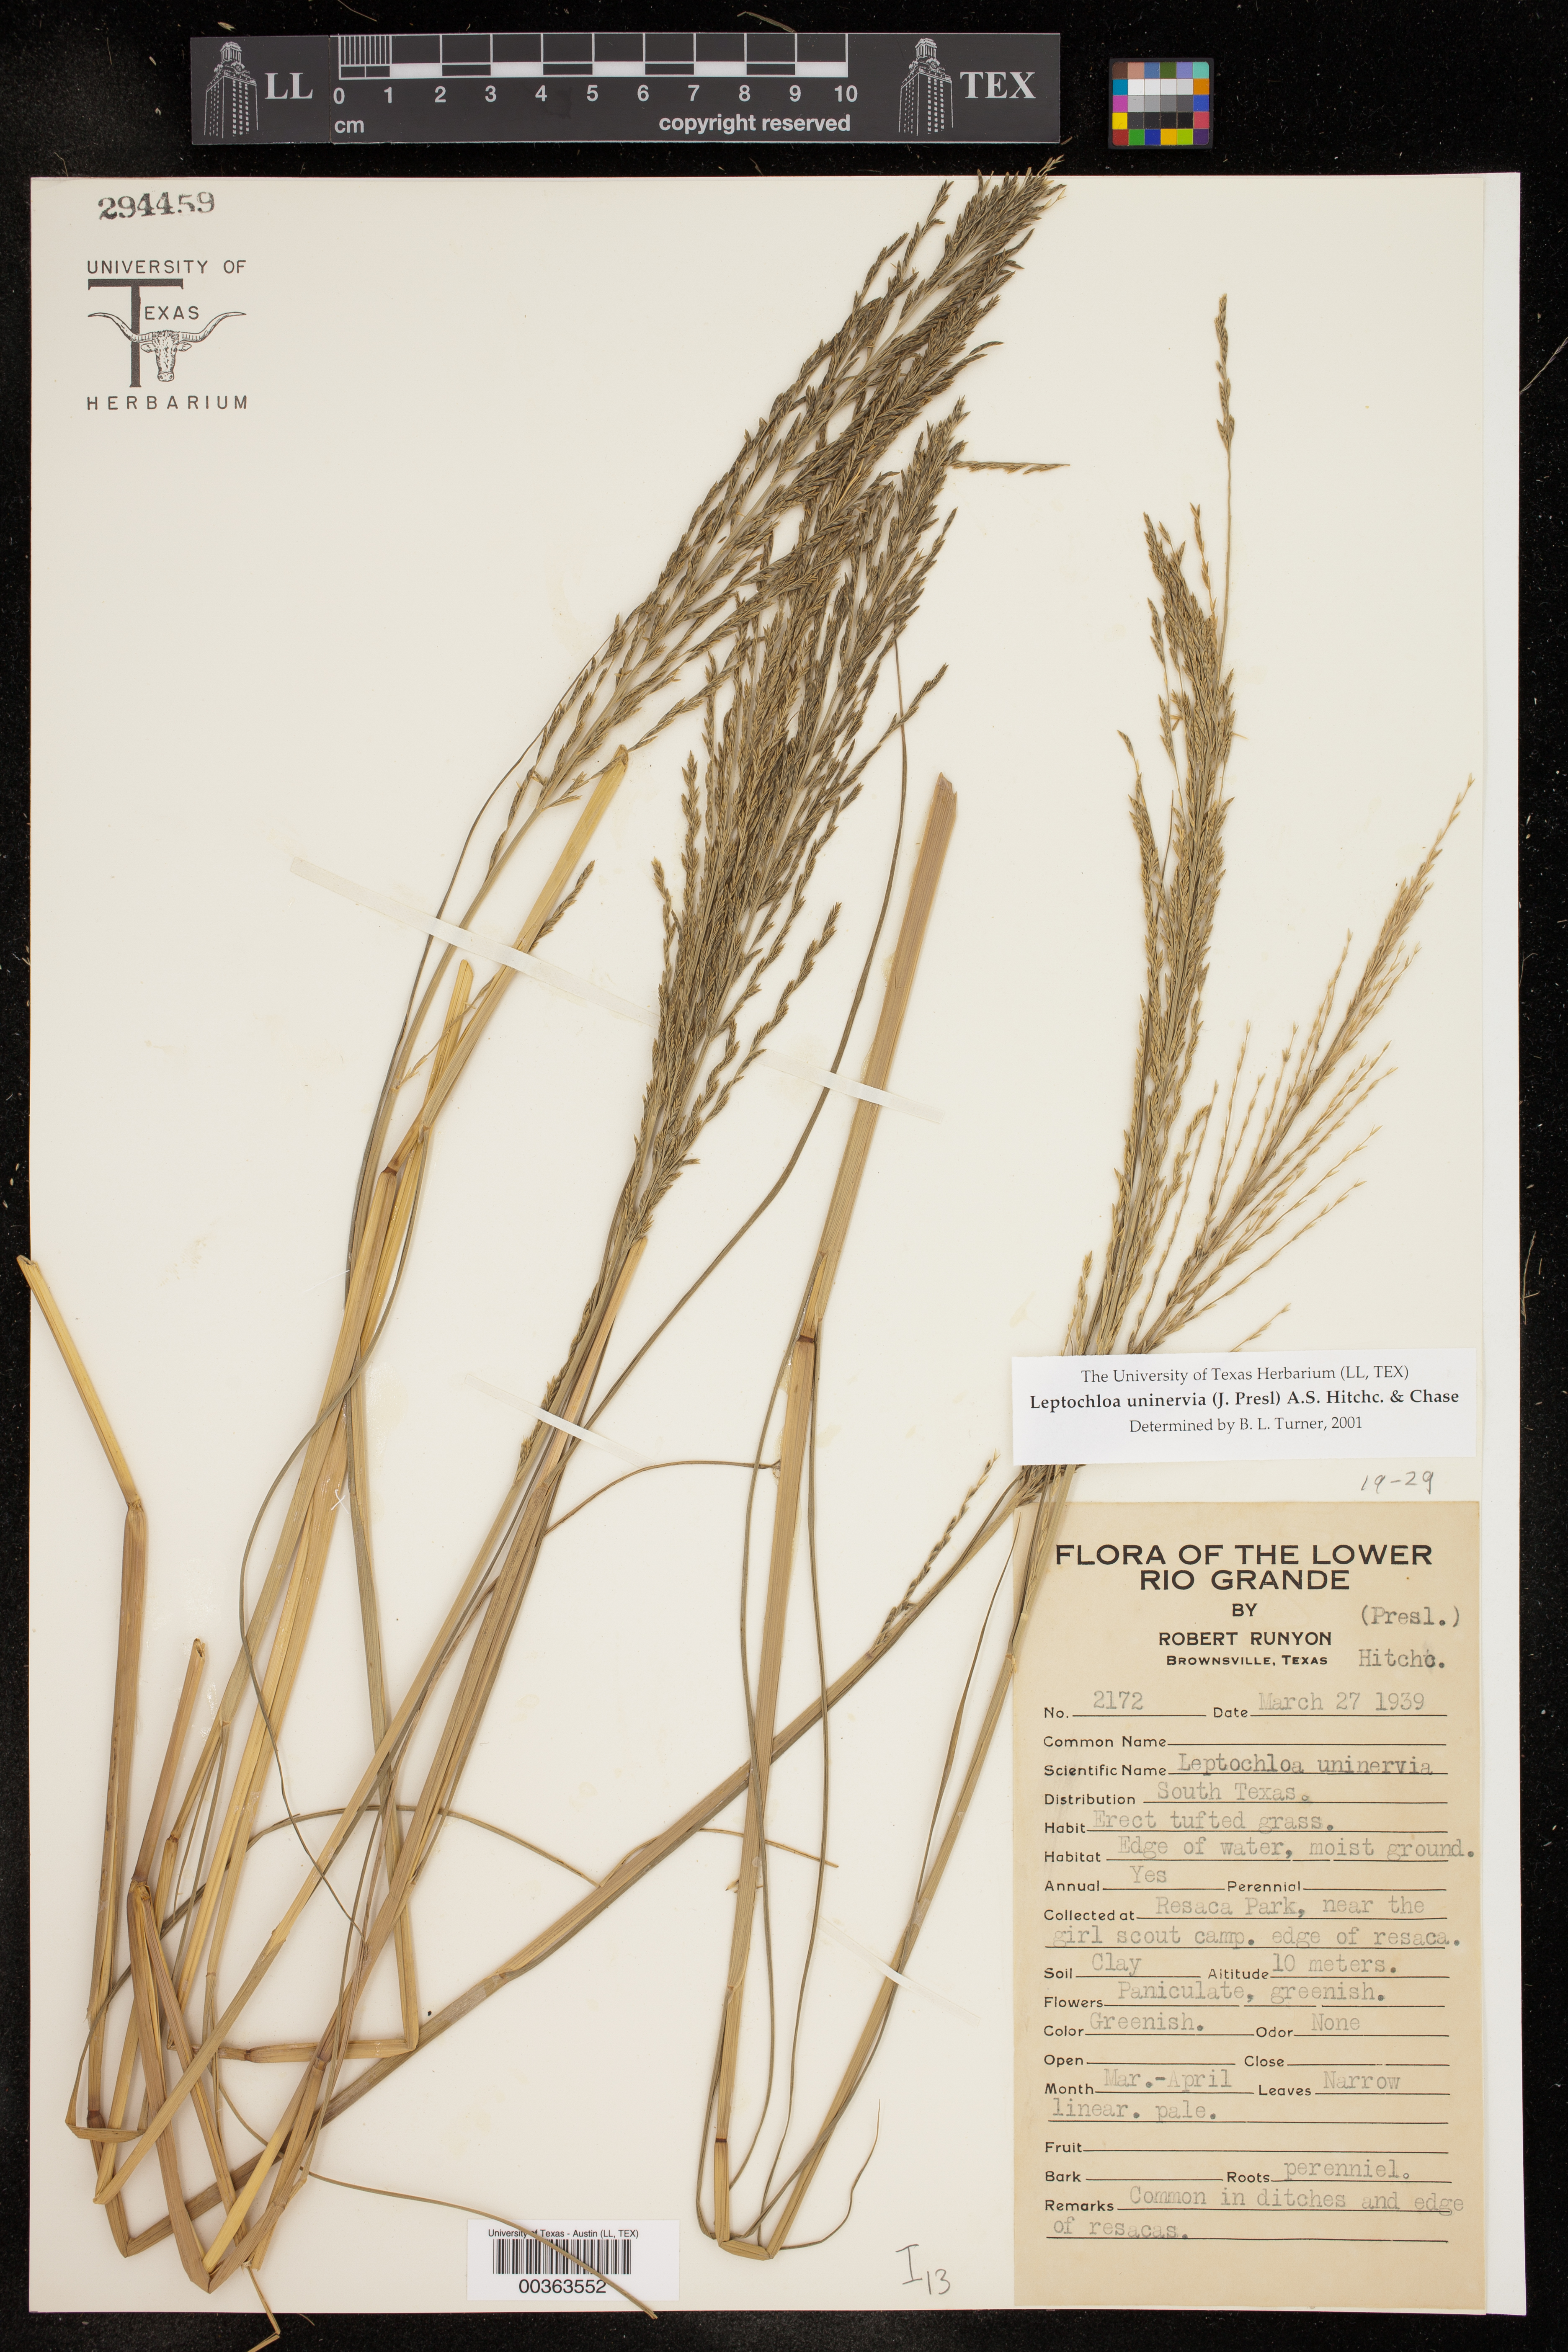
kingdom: Plantae
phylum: Tracheophyta
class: Liliopsida
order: Poales
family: Poaceae
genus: Diplachne
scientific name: Diplachne fusca
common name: Brown beetle grass
